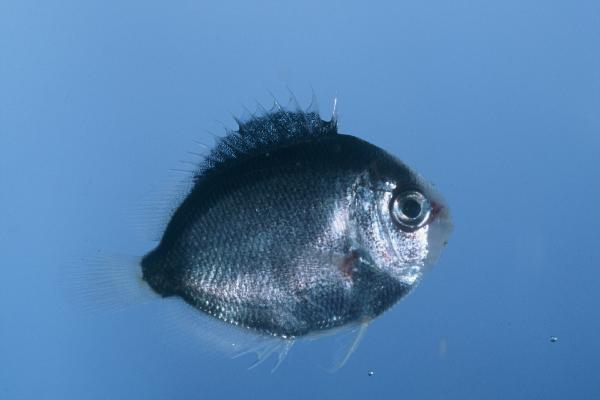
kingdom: Animalia
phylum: Chordata
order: Perciformes
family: Pomacanthidae
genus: Apolemichthys
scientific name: Apolemichthys trimaculatus
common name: Threespot angelfish
